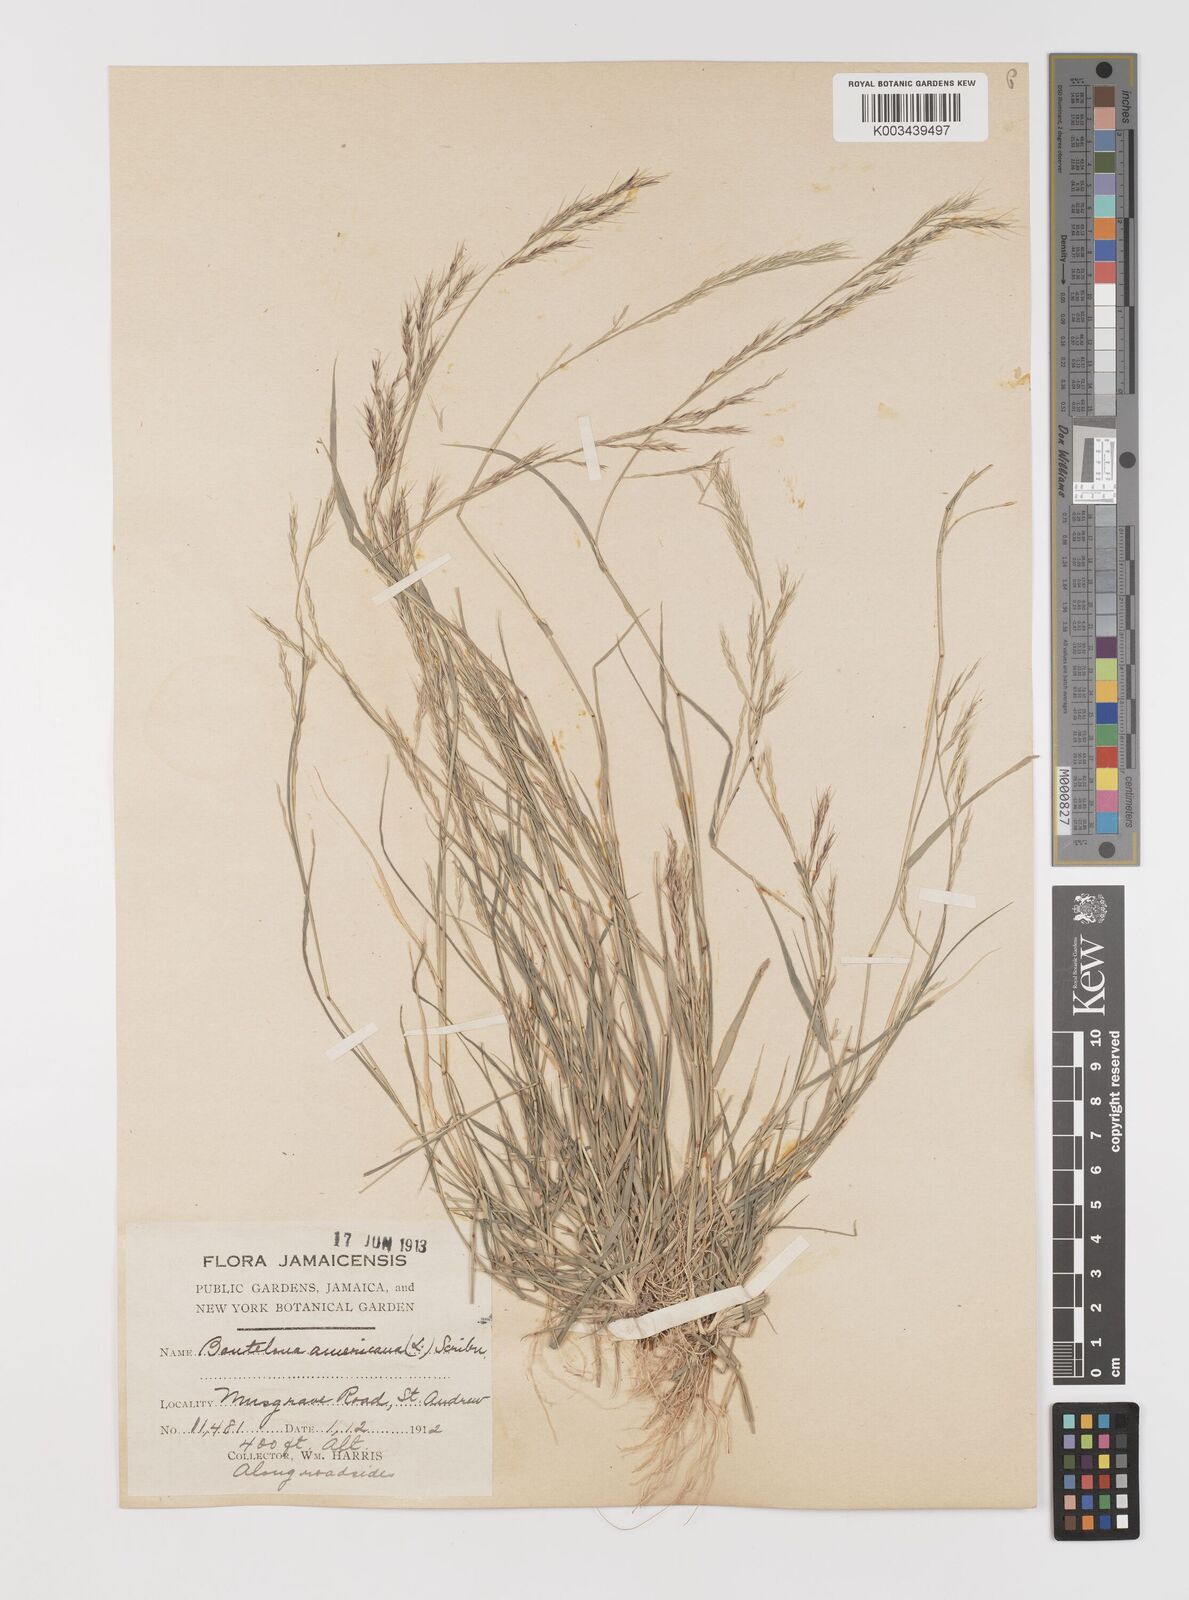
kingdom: Plantae
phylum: Tracheophyta
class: Liliopsida
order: Poales
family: Poaceae
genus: Bouteloua
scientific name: Bouteloua americana
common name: Mule grass
